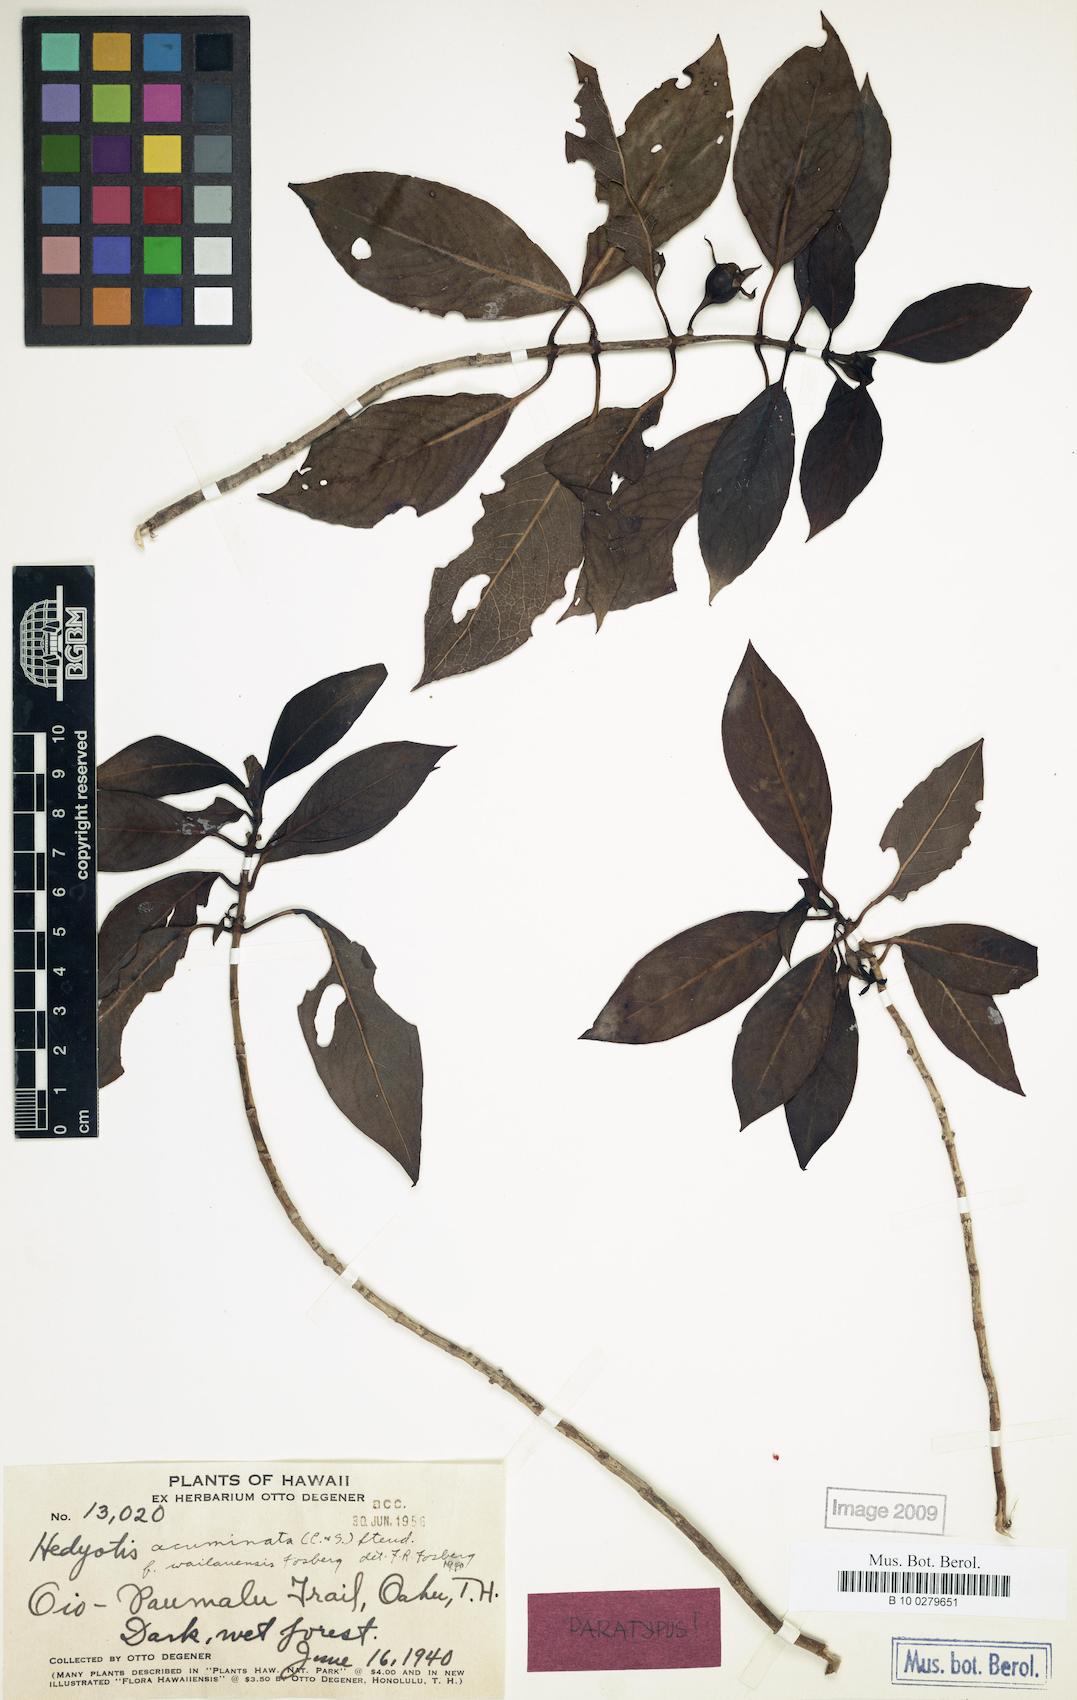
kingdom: Plantae
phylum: Tracheophyta
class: Magnoliopsida
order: Gentianales
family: Rubiaceae
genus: Kadua
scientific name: Kadua acuminata
